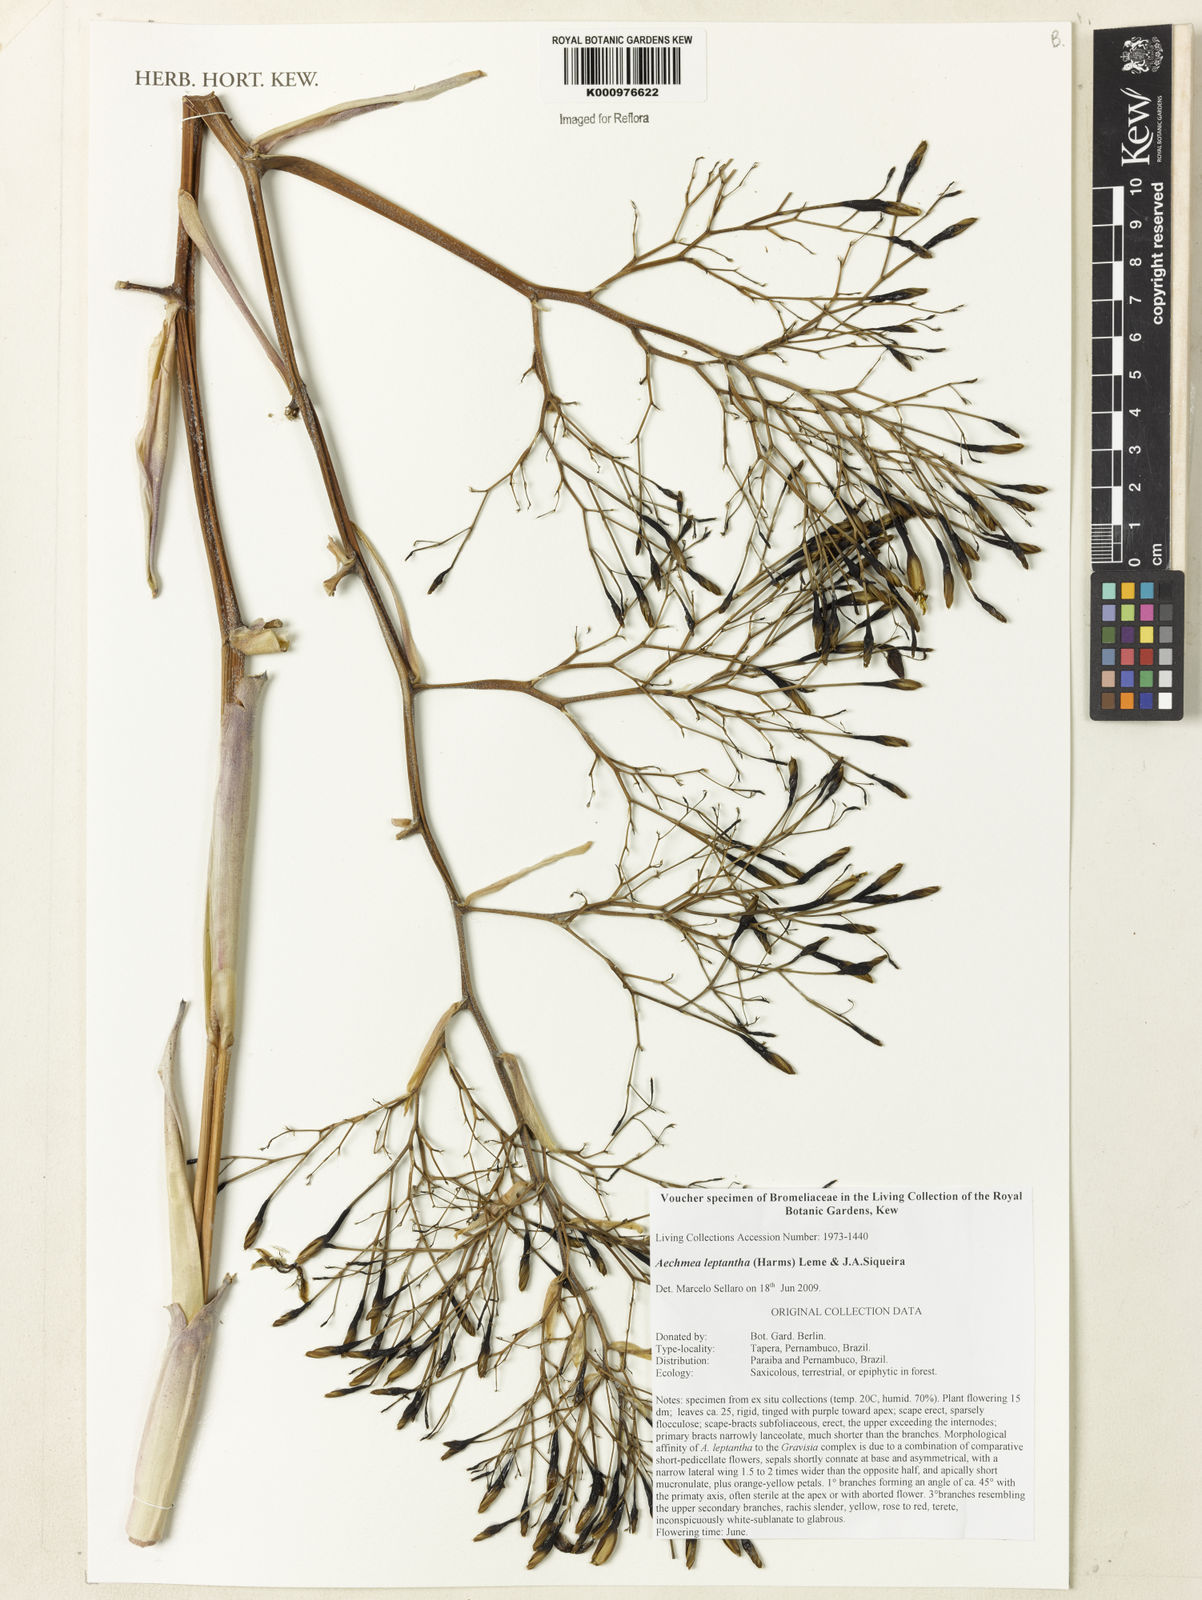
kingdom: Plantae
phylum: Tracheophyta
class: Liliopsida
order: Poales
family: Bromeliaceae
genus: Aechmea
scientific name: Aechmea leptantha
